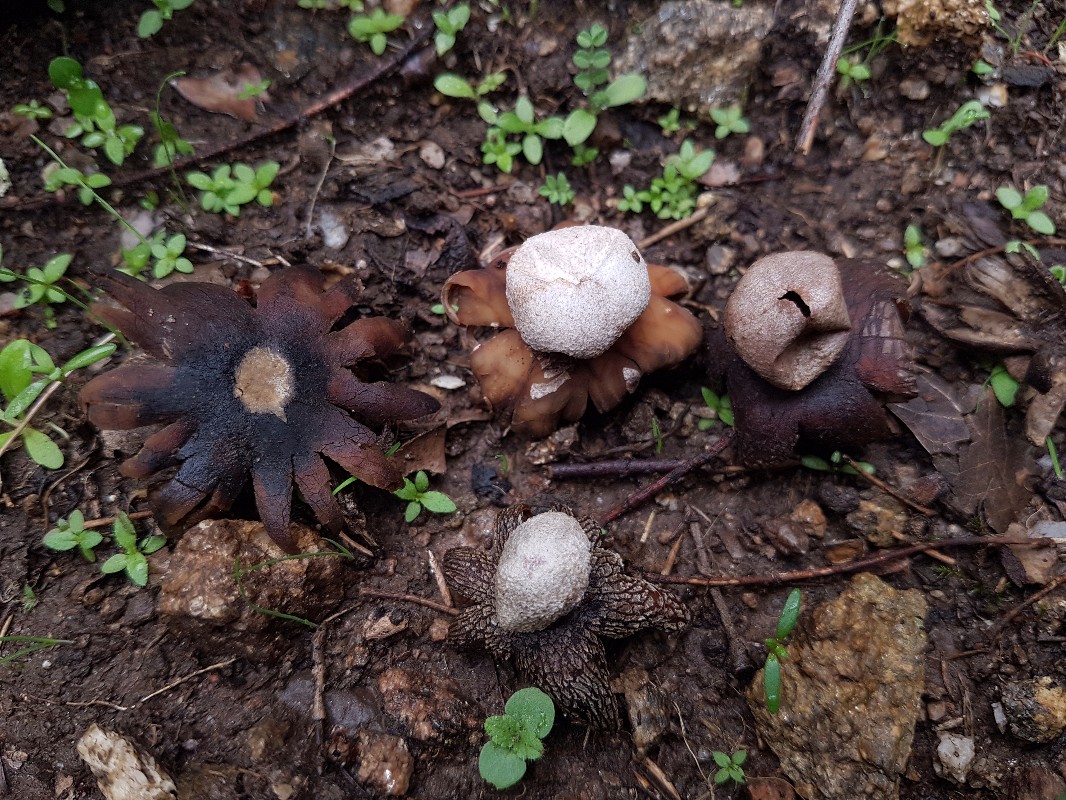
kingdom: Fungi
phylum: Basidiomycota
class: Agaricomycetes
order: Boletales
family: Diplocystidiaceae
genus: Astraeus
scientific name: Astraeus hygrometricus
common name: Barometer earthstar
